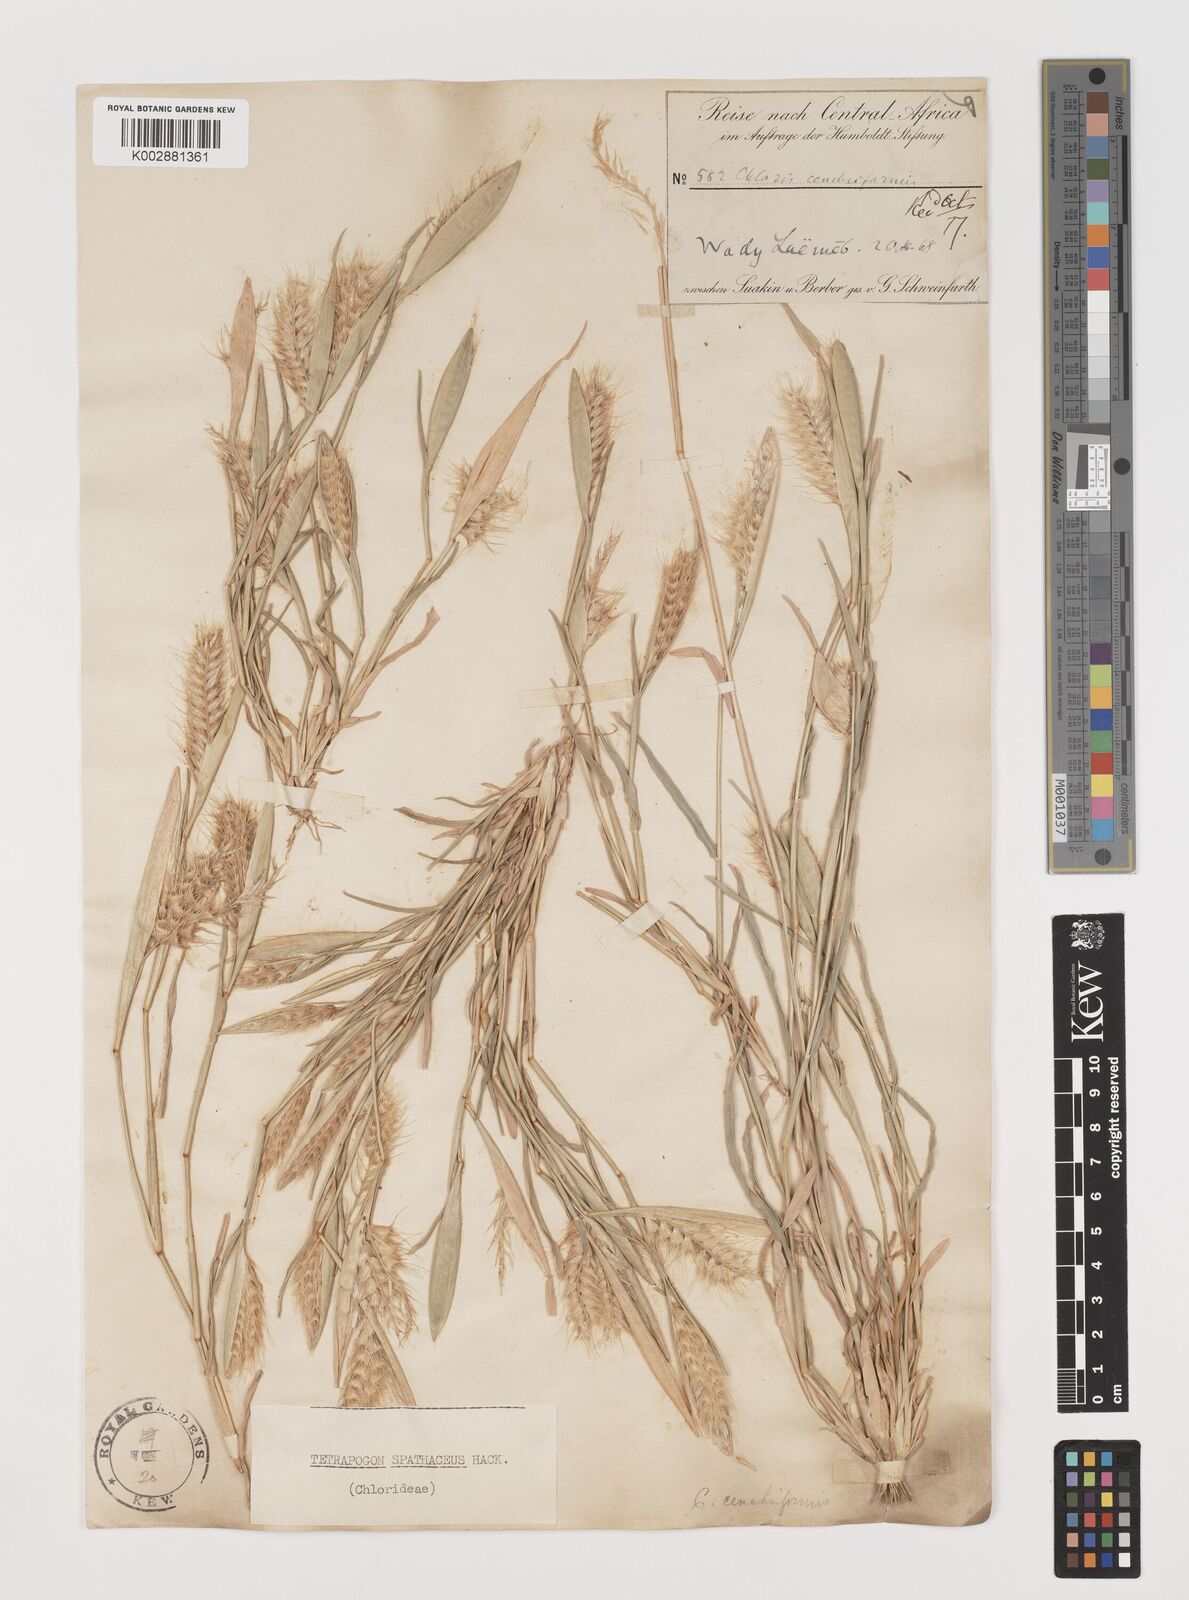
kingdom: Plantae
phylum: Tracheophyta
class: Liliopsida
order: Poales
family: Poaceae
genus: Tetrapogon
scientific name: Tetrapogon cenchriformis
